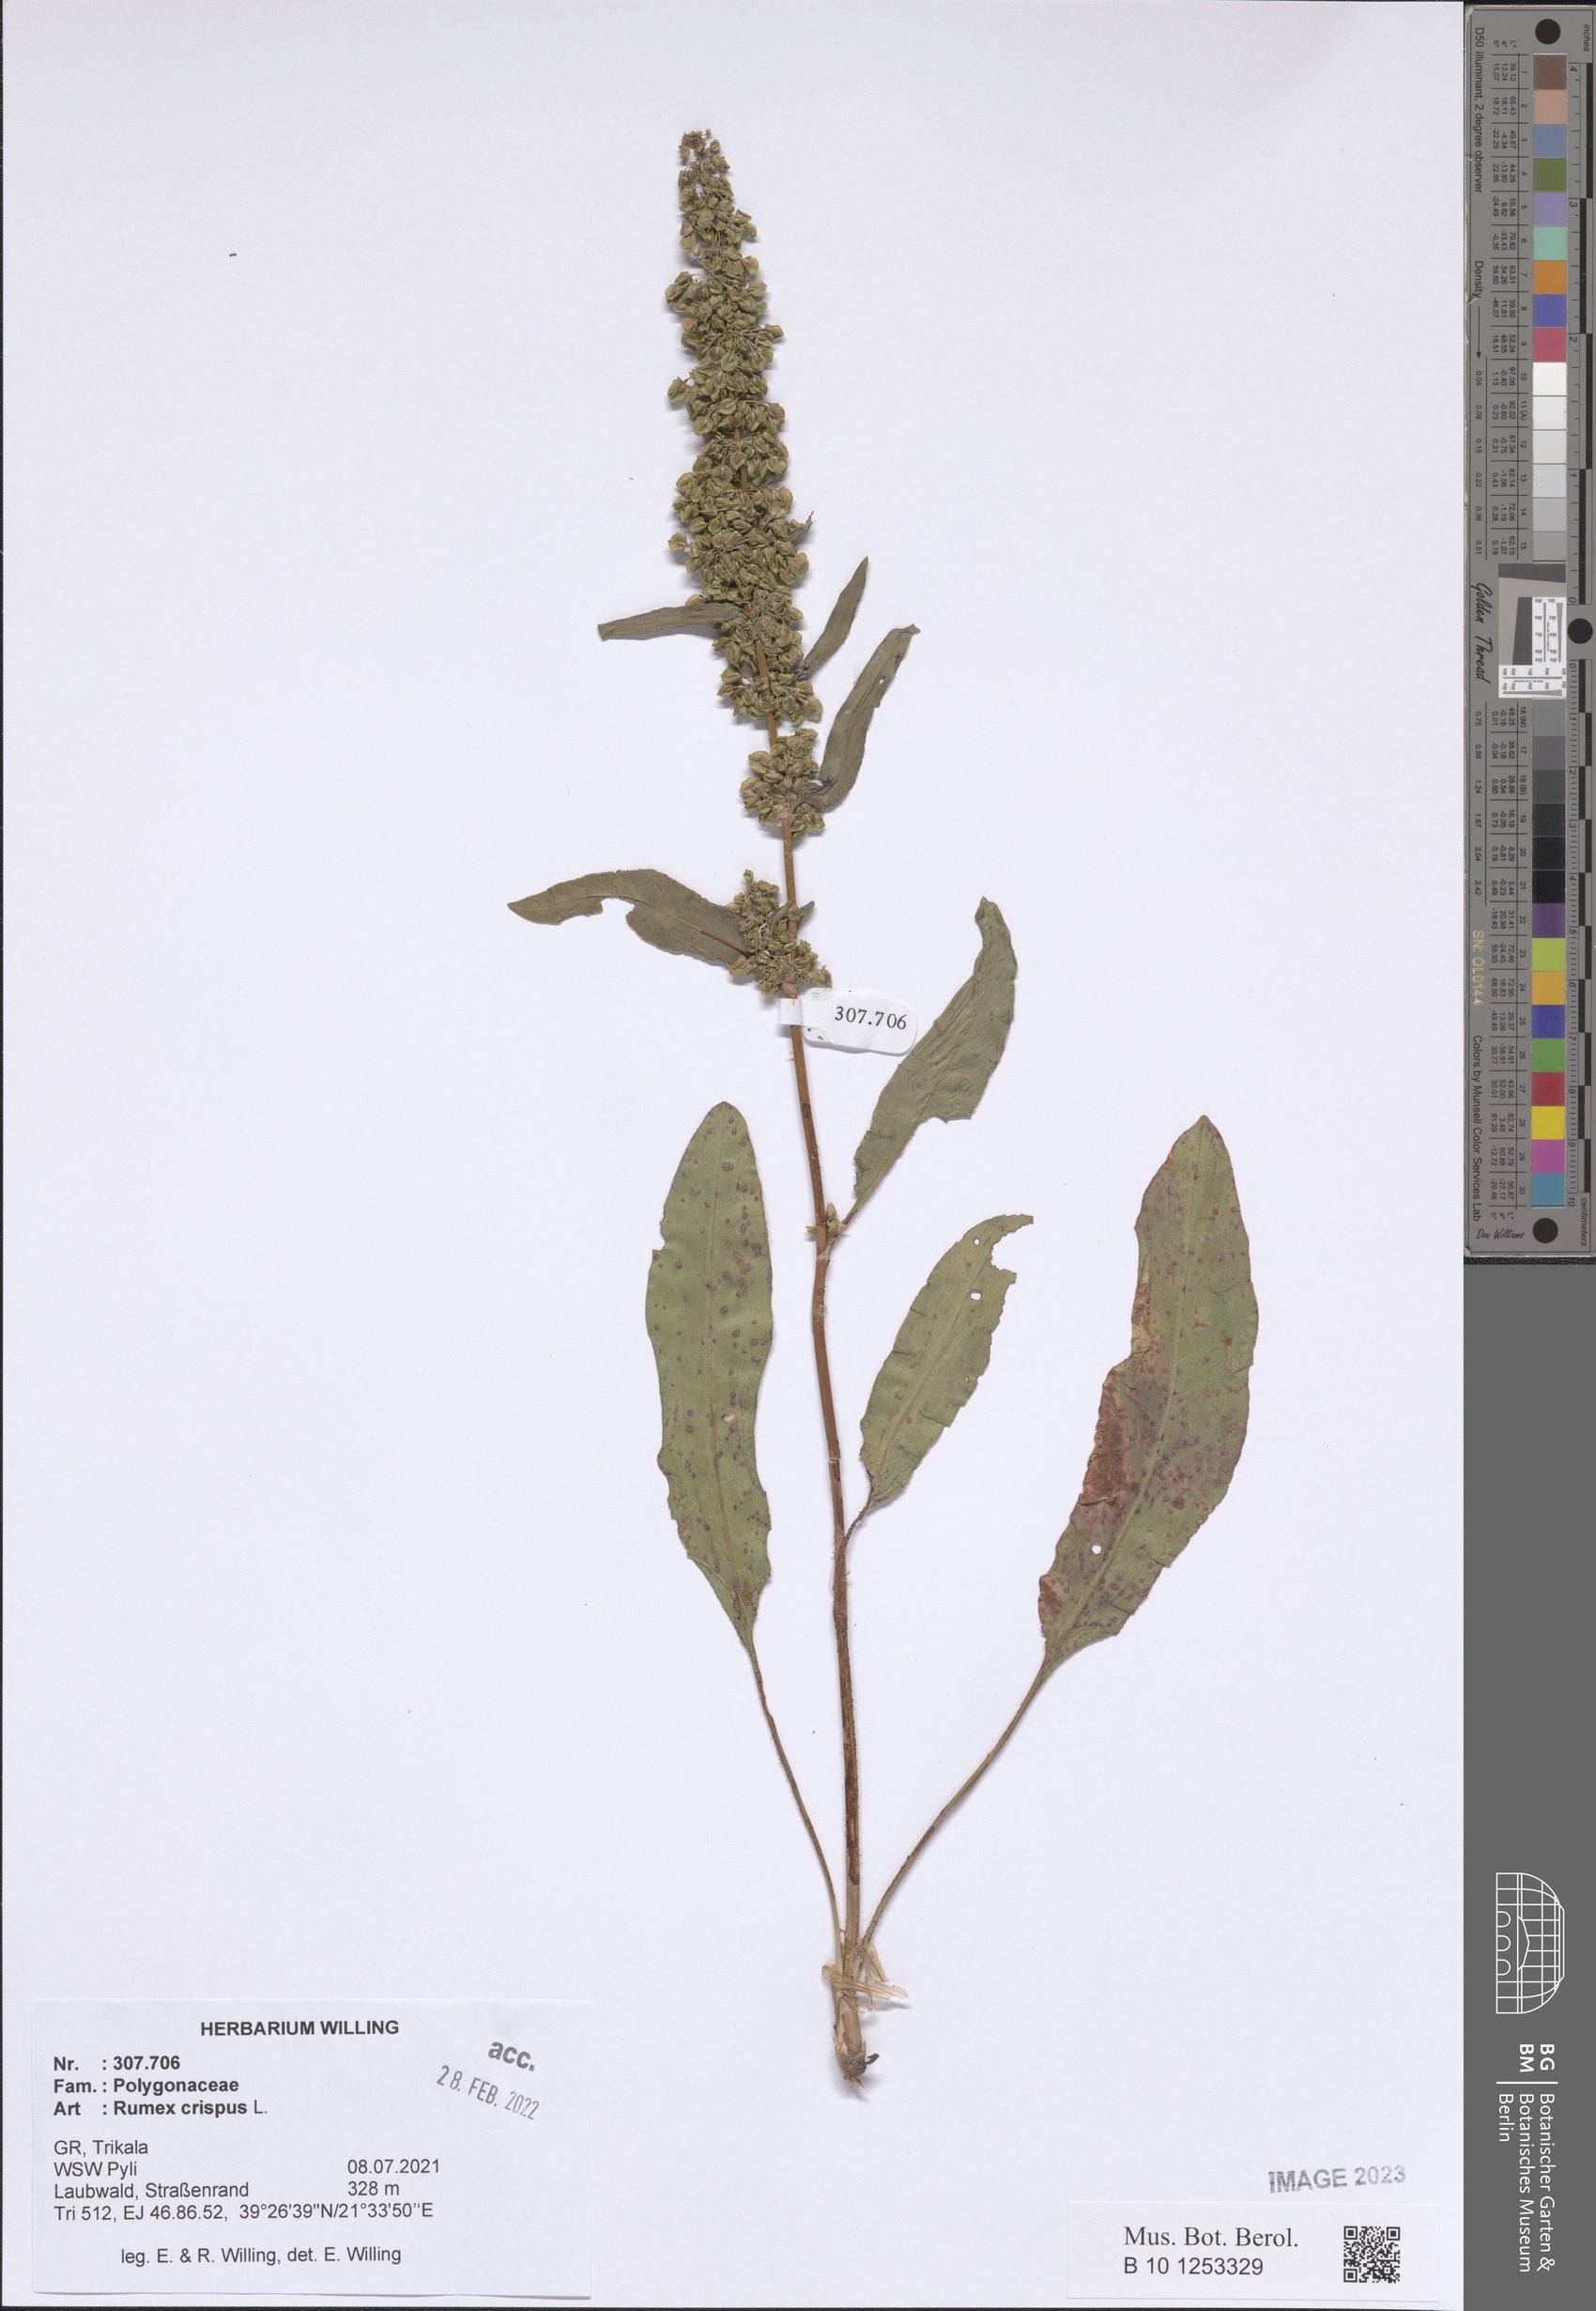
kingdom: Plantae
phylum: Tracheophyta
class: Magnoliopsida
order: Caryophyllales
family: Polygonaceae
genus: Rumex
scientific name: Rumex crispus
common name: Curled dock
